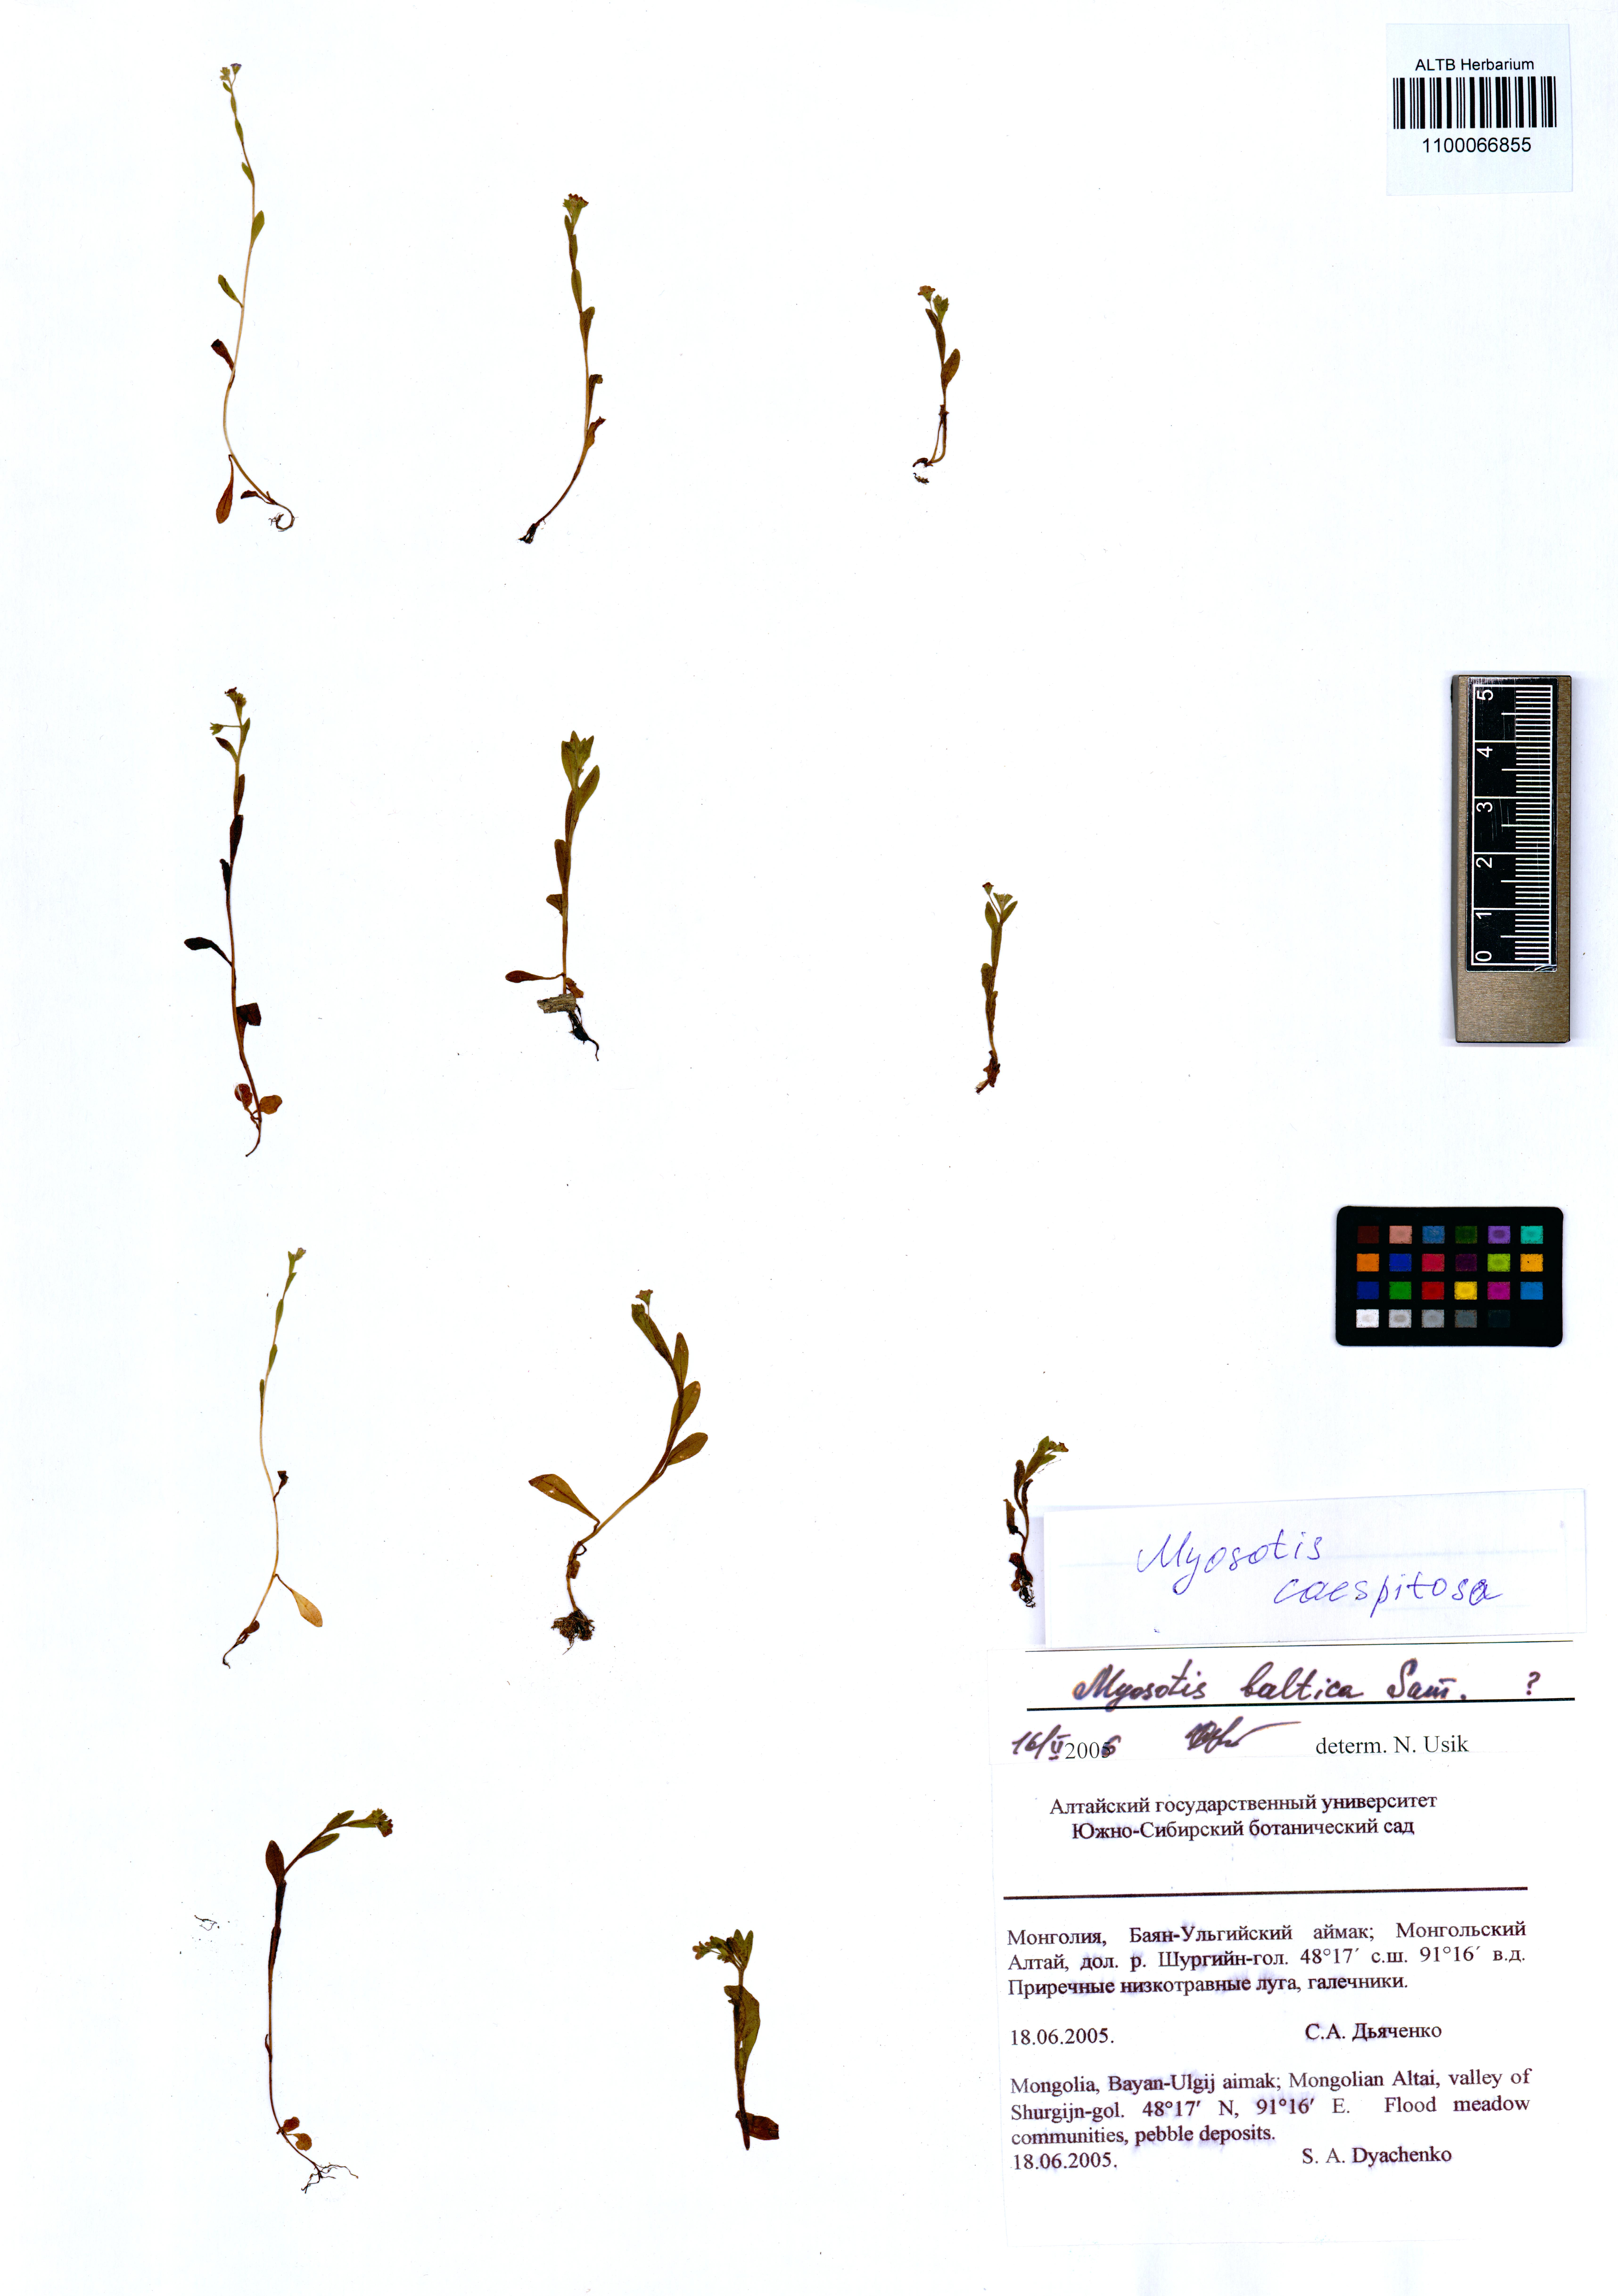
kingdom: Plantae
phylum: Tracheophyta
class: Magnoliopsida
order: Boraginales
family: Boraginaceae
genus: Myosotis
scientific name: Myosotis laxa
